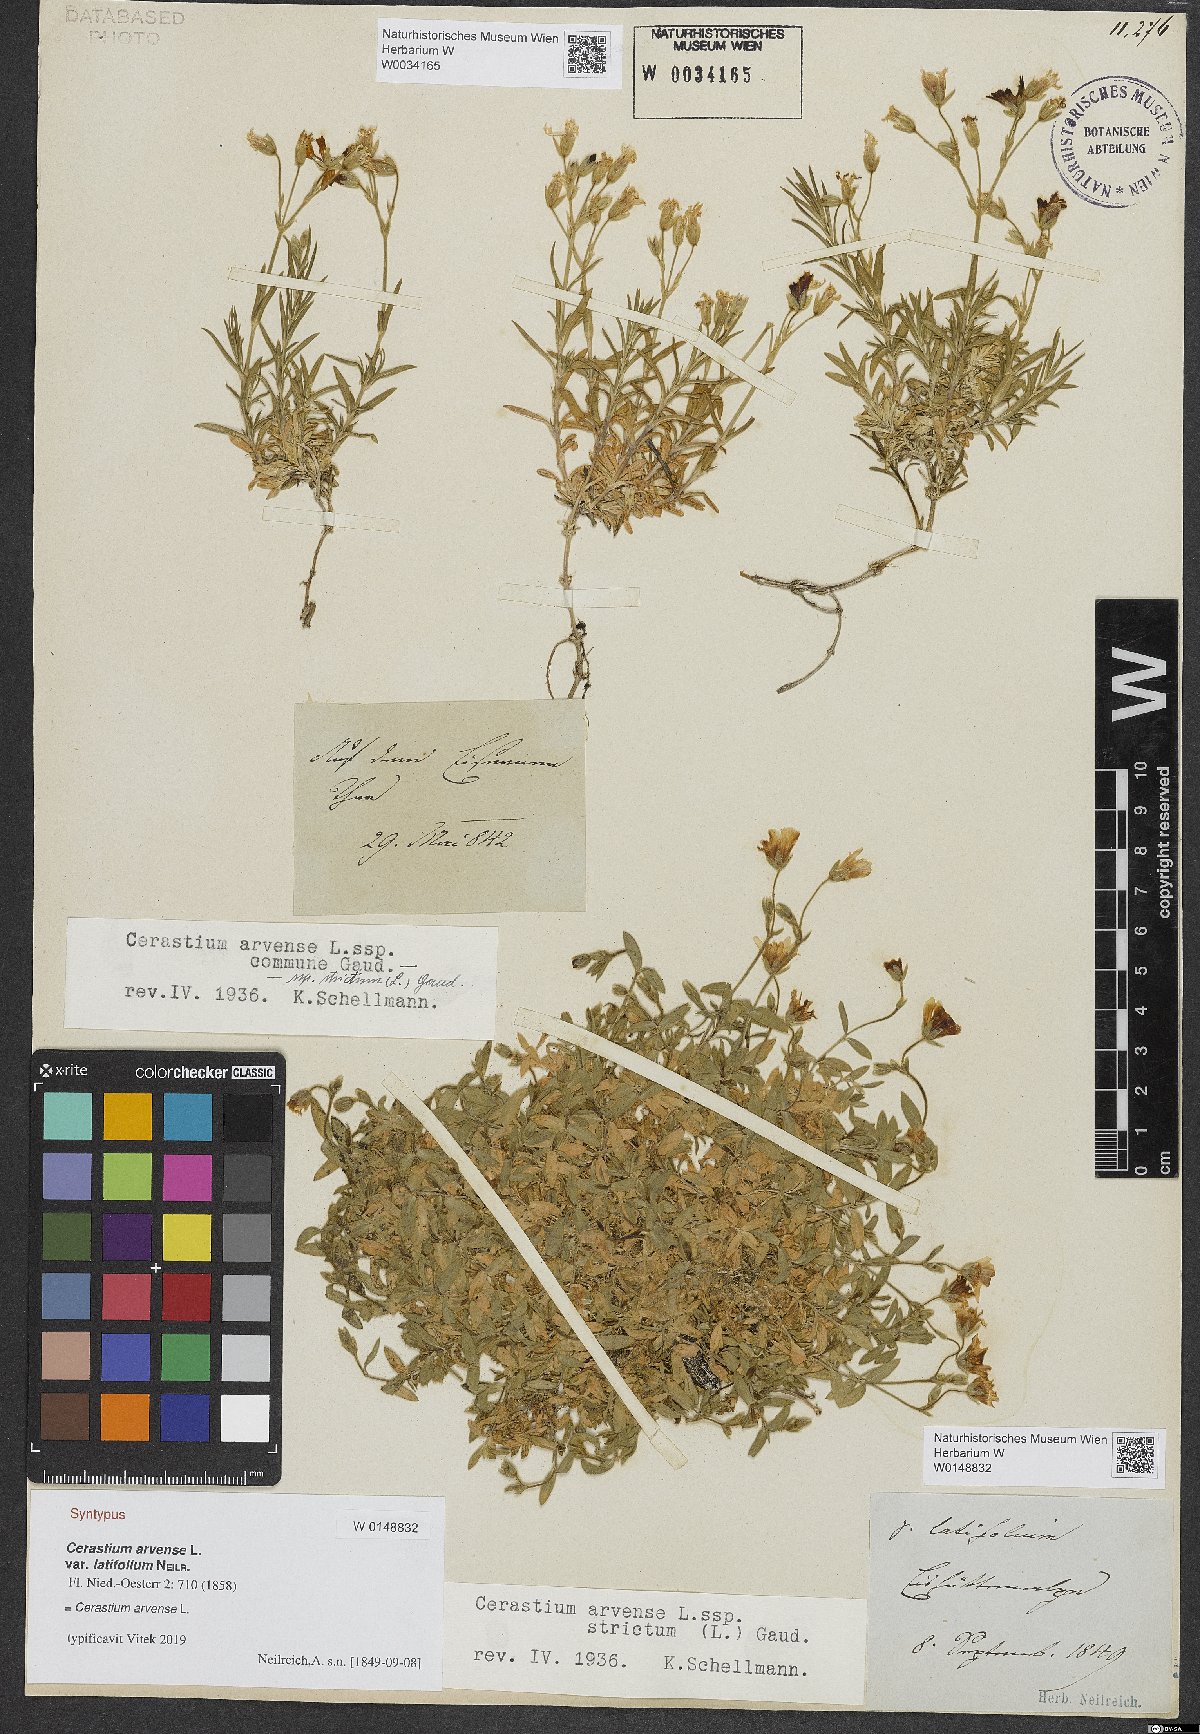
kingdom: Plantae
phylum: Tracheophyta
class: Magnoliopsida
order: Caryophyllales
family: Caryophyllaceae
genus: Cerastium
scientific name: Cerastium elongatum
